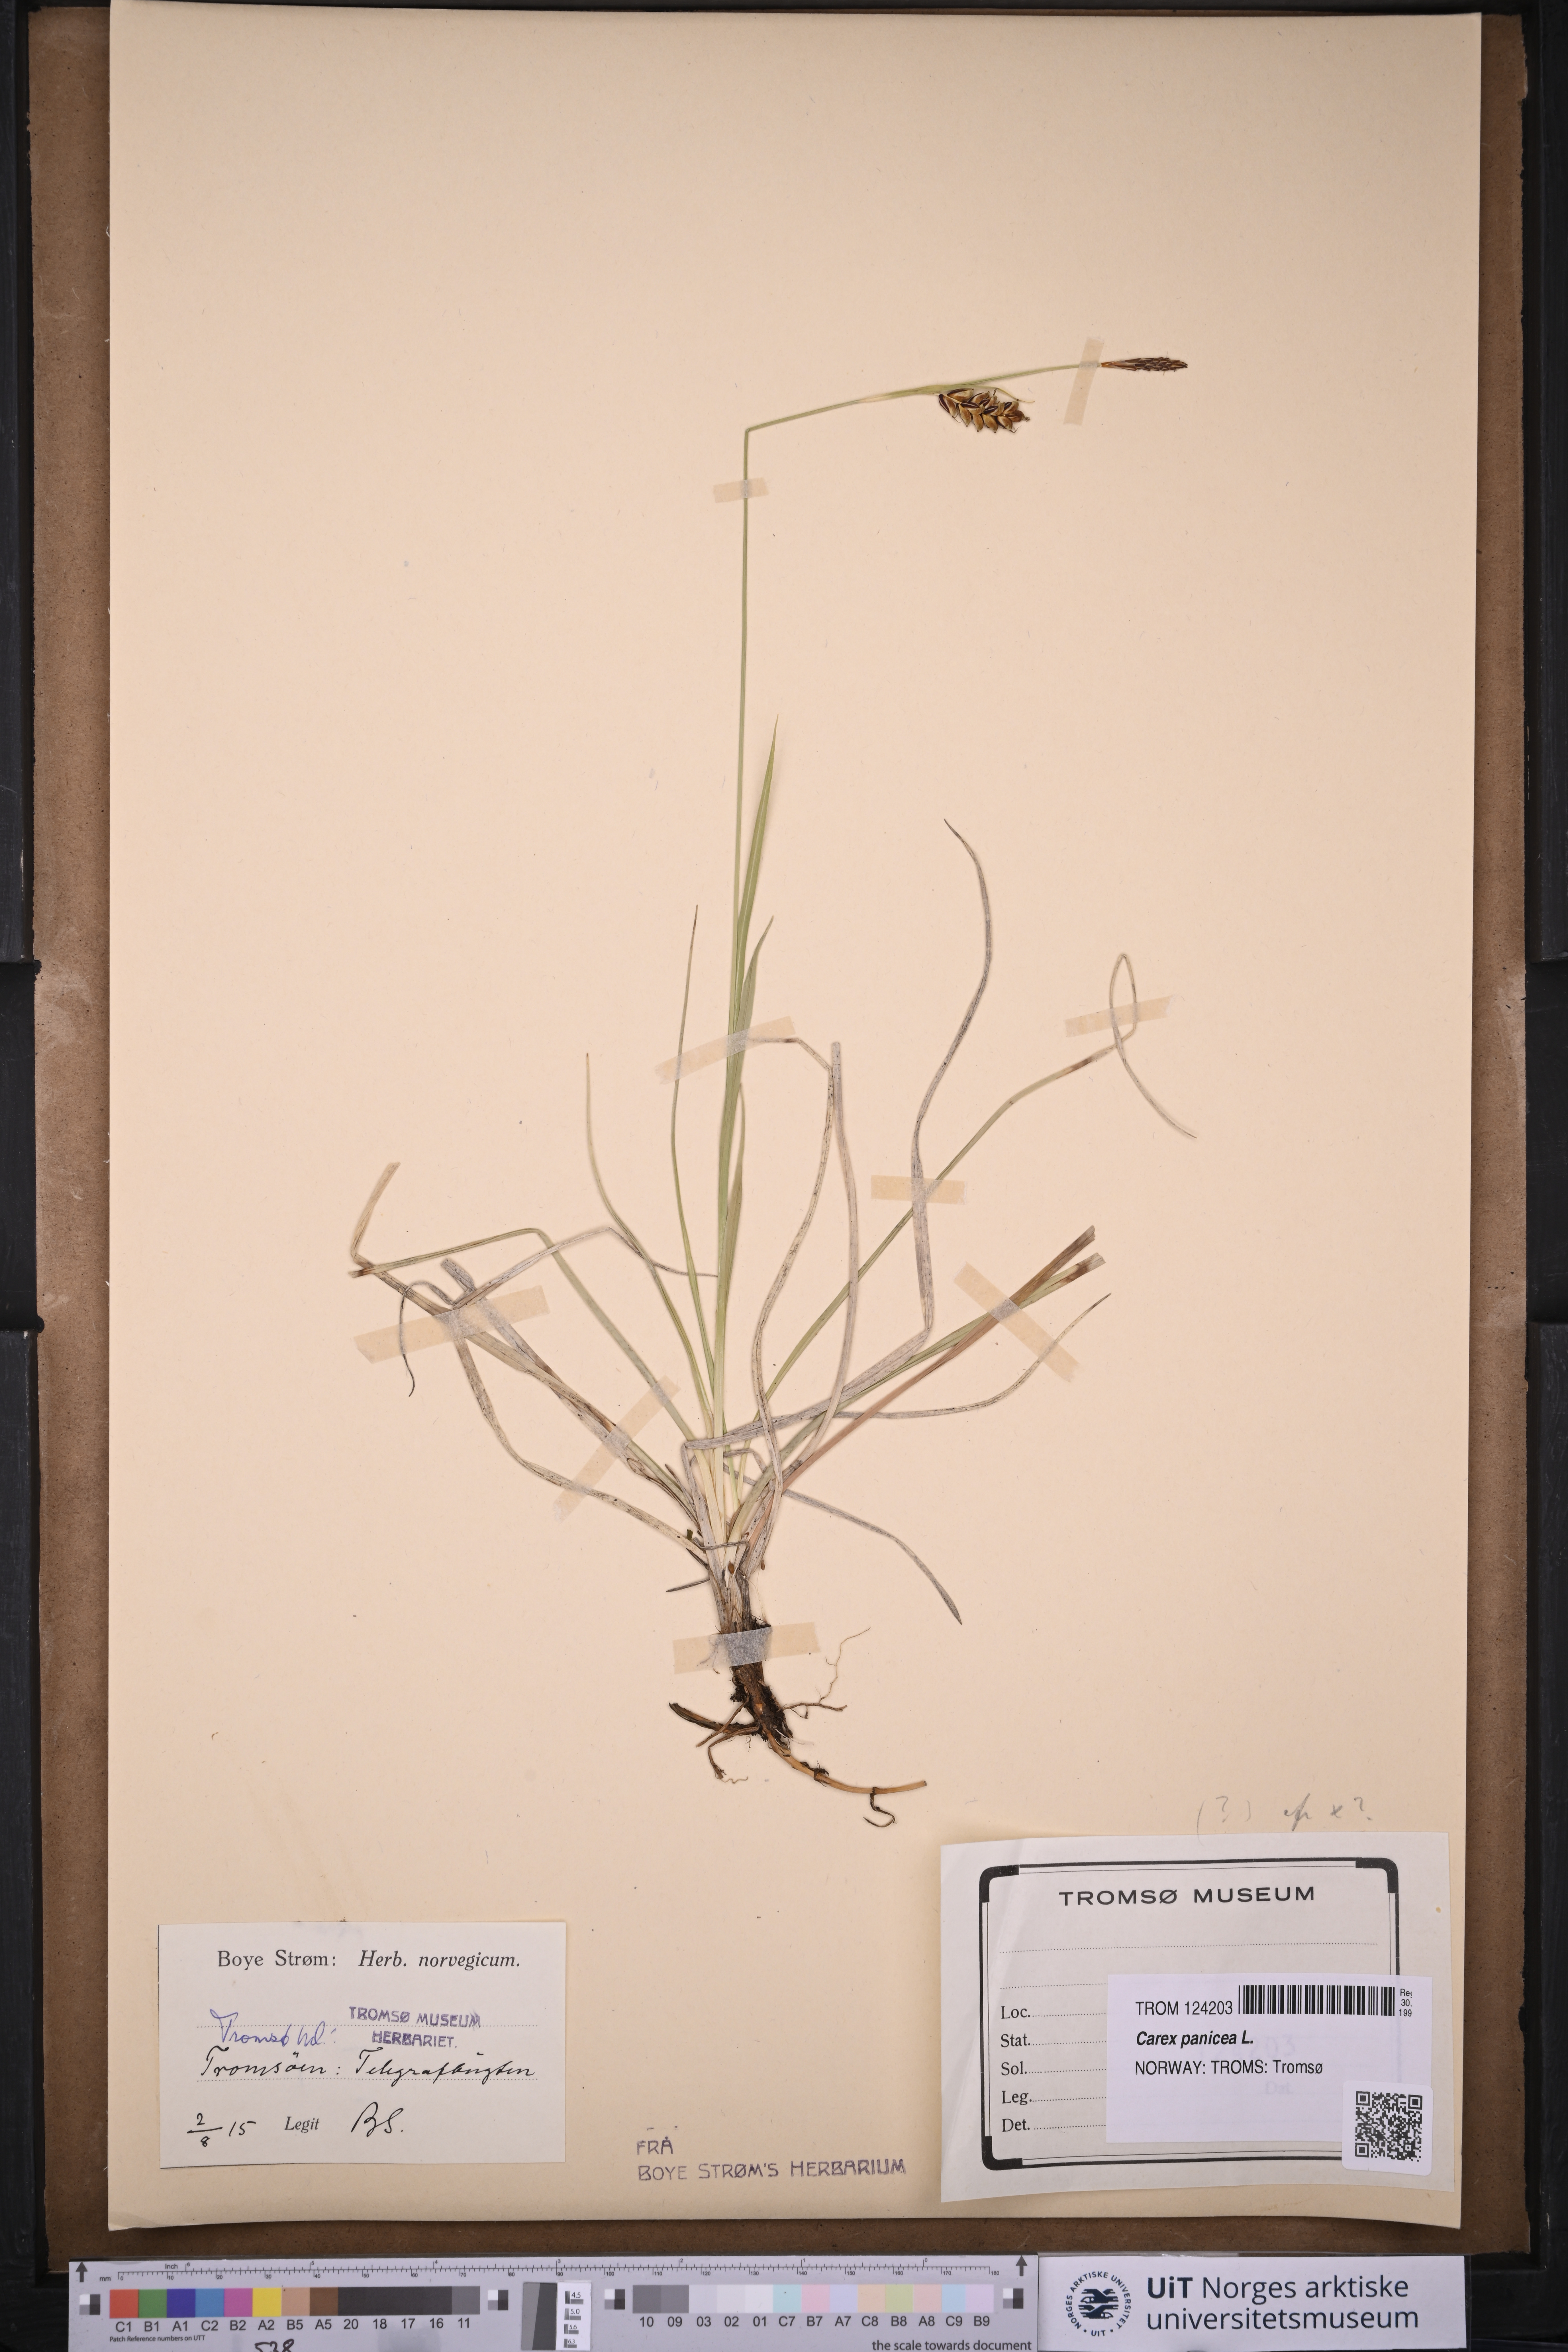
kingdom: Plantae
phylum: Tracheophyta
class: Liliopsida
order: Poales
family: Cyperaceae
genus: Carex
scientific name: Carex panicea
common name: Carnation sedge
